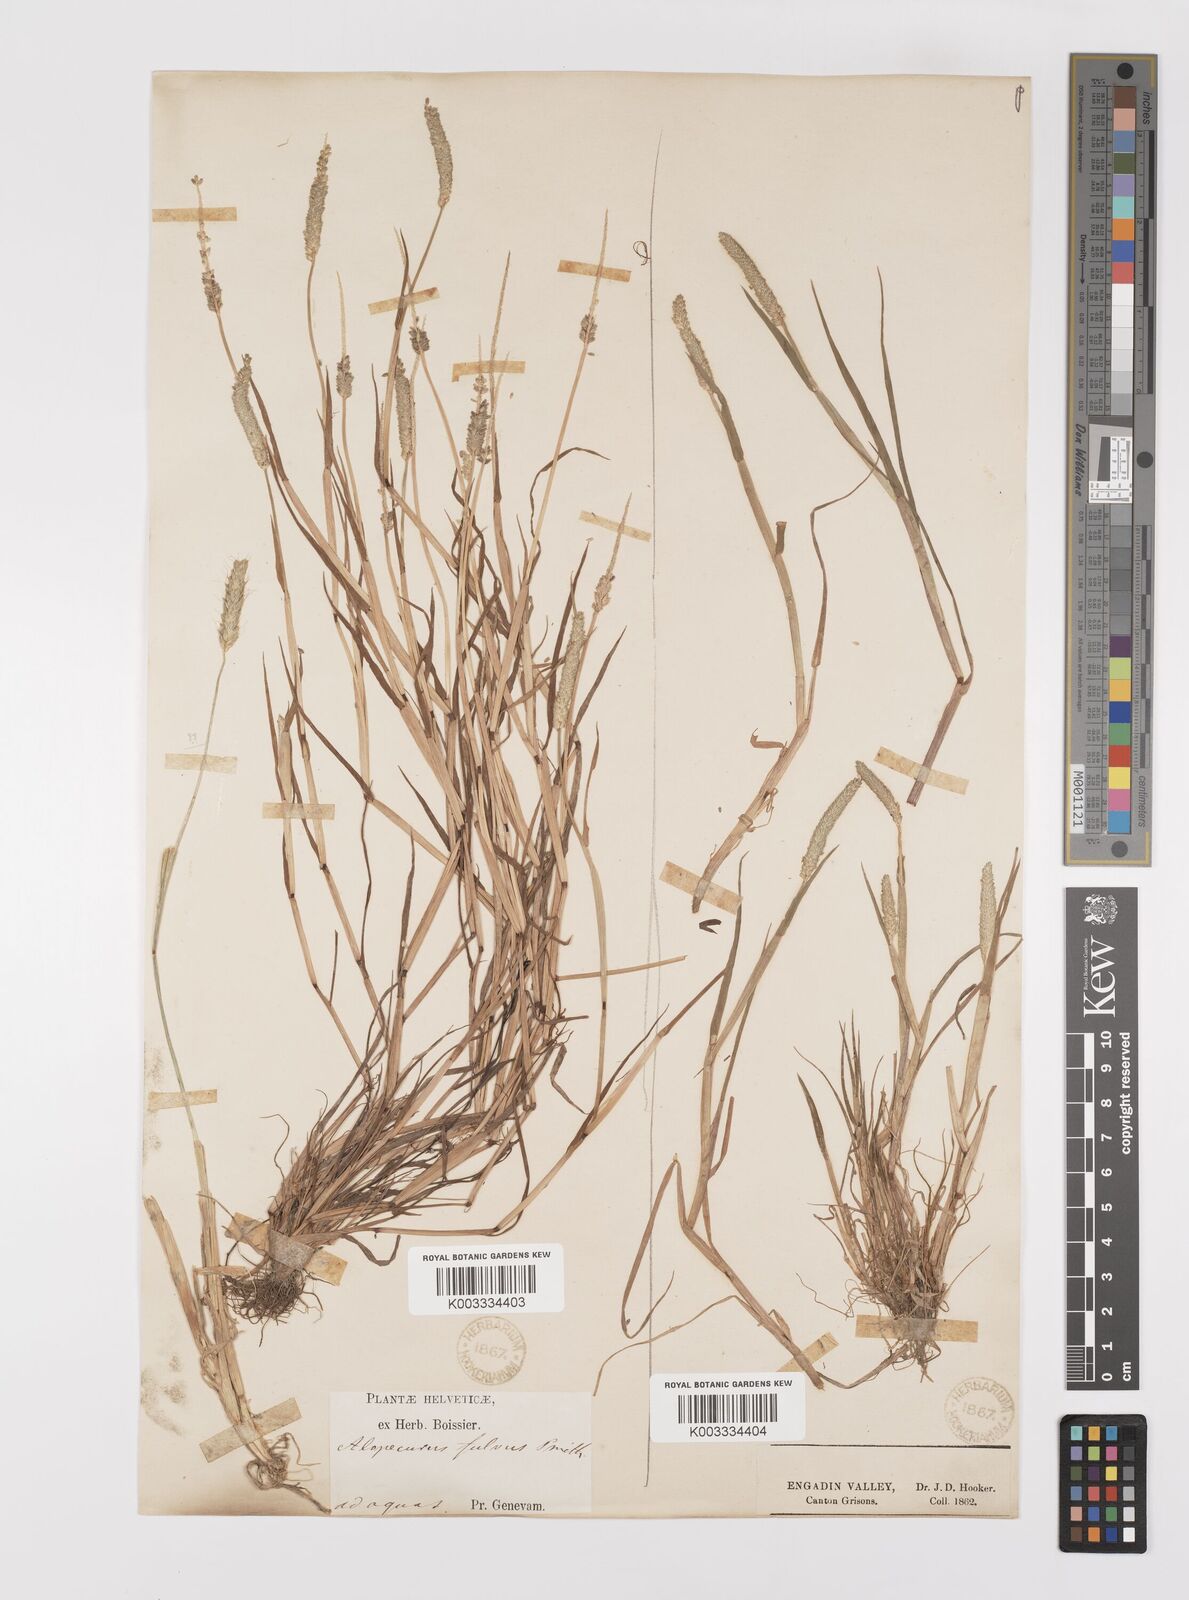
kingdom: Plantae
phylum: Tracheophyta
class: Liliopsida
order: Poales
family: Poaceae
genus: Alopecurus
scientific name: Alopecurus aequalis
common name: Orange foxtail
